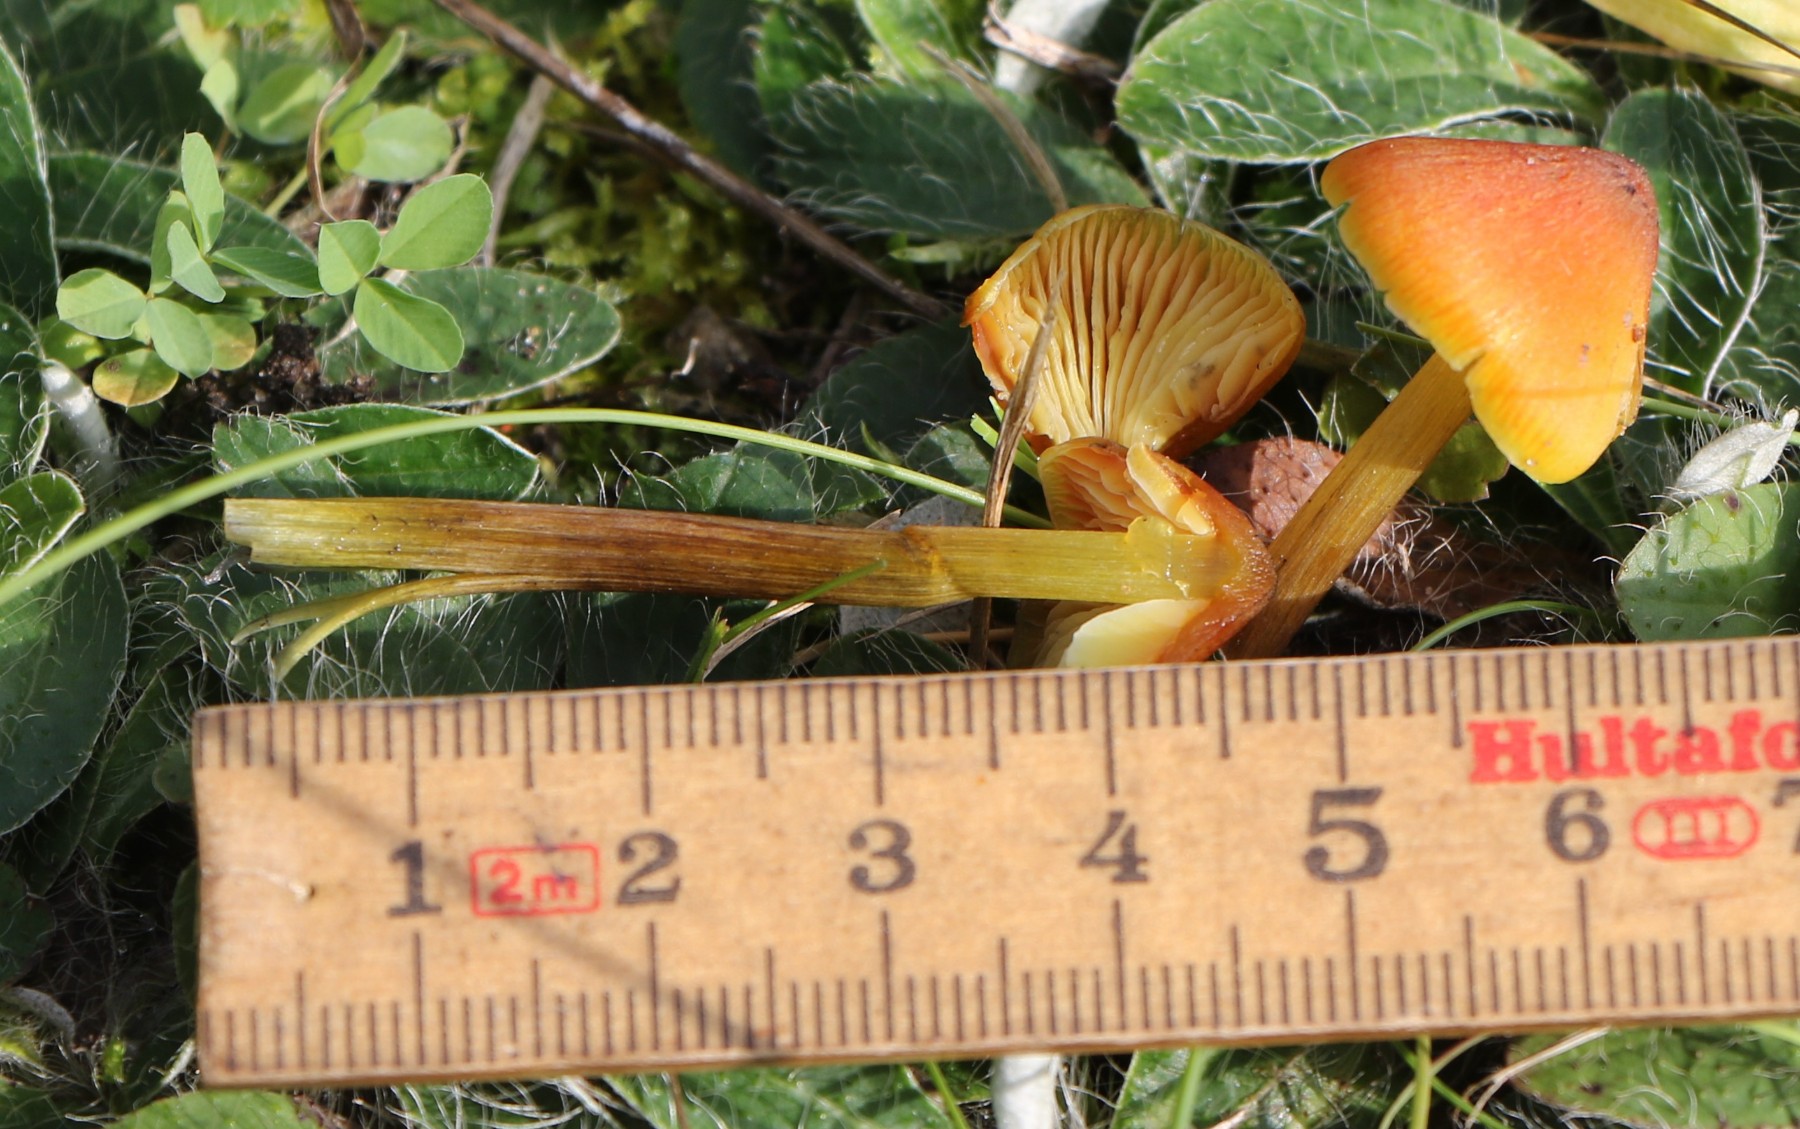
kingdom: Fungi
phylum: Basidiomycota
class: Agaricomycetes
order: Agaricales
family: Hygrophoraceae
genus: Hygrocybe
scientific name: Hygrocybe conica
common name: kegle-vokshat
